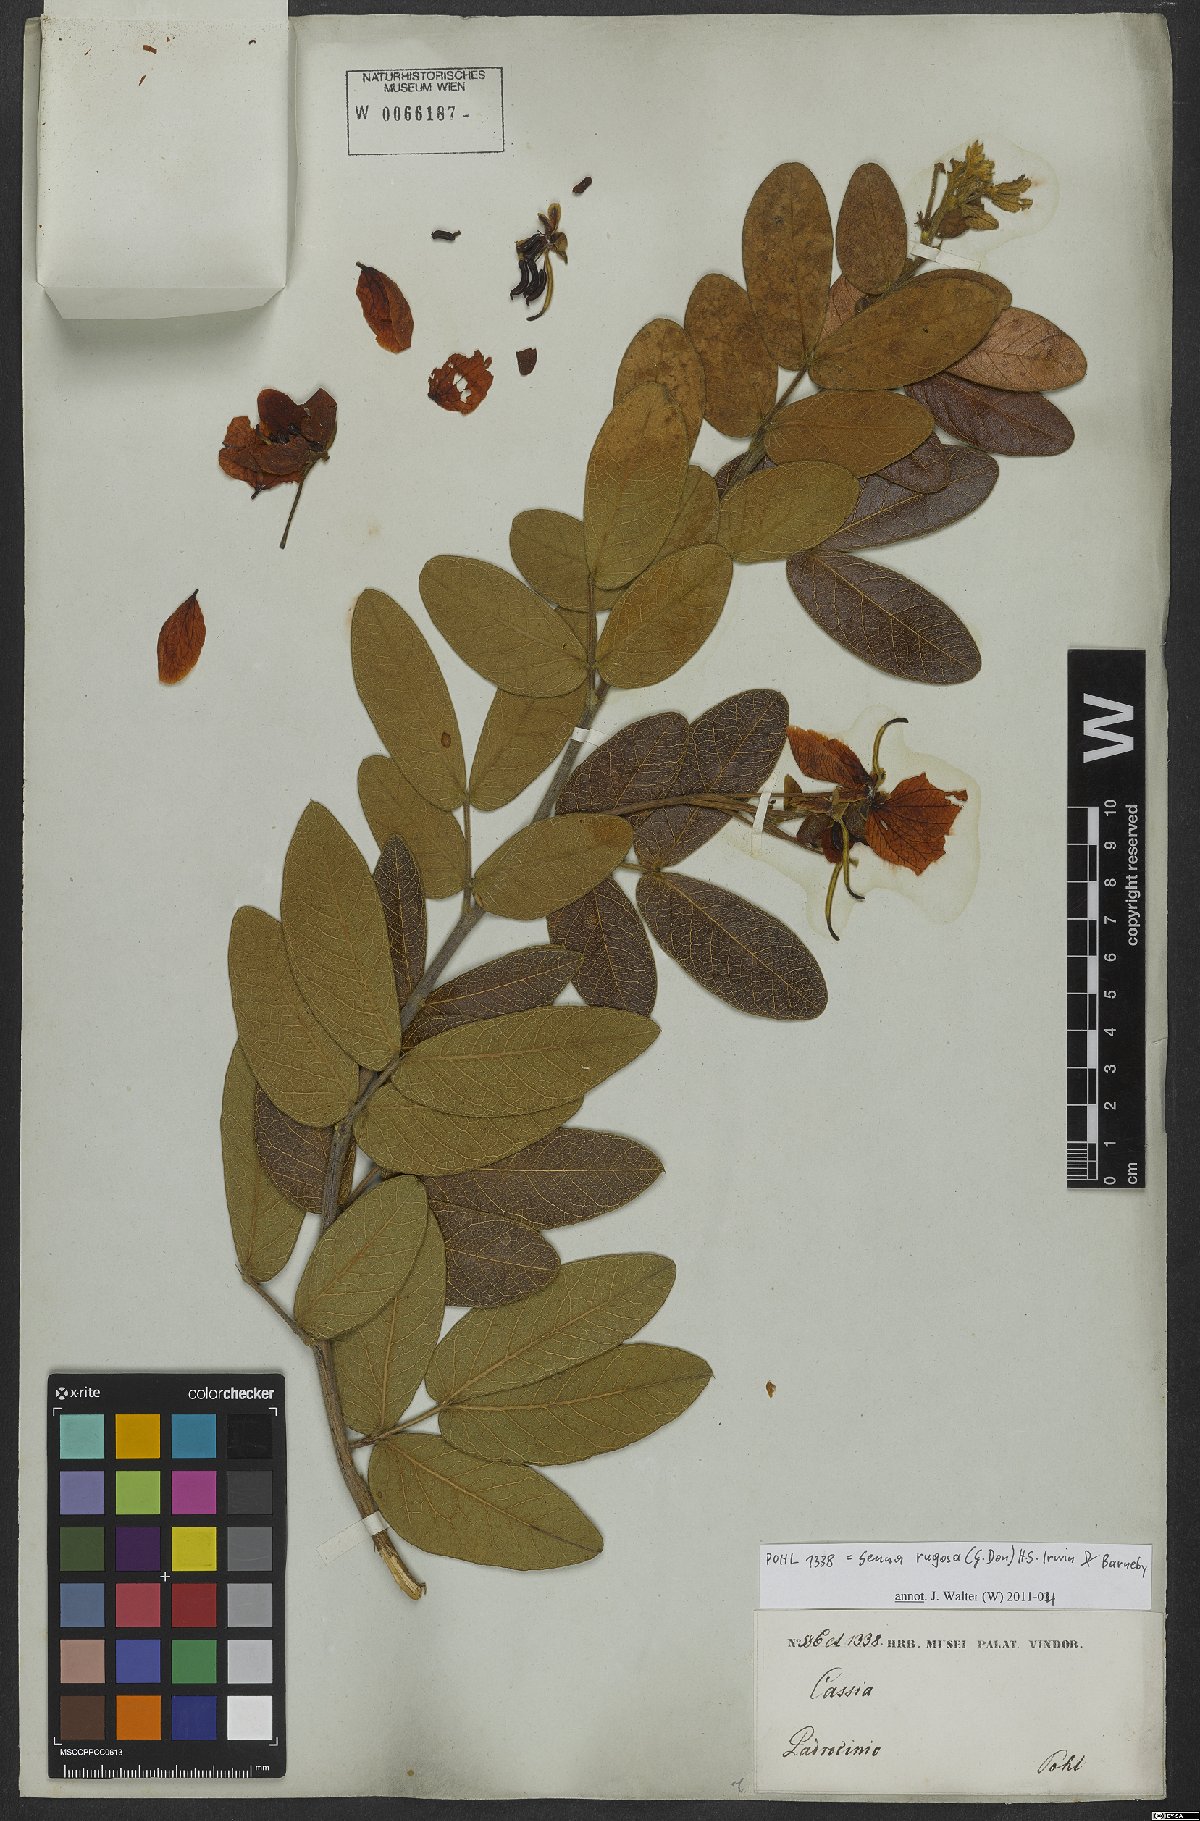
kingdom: Plantae
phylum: Tracheophyta
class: Magnoliopsida
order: Fabales
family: Fabaceae
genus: Senna
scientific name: Senna rugosa
